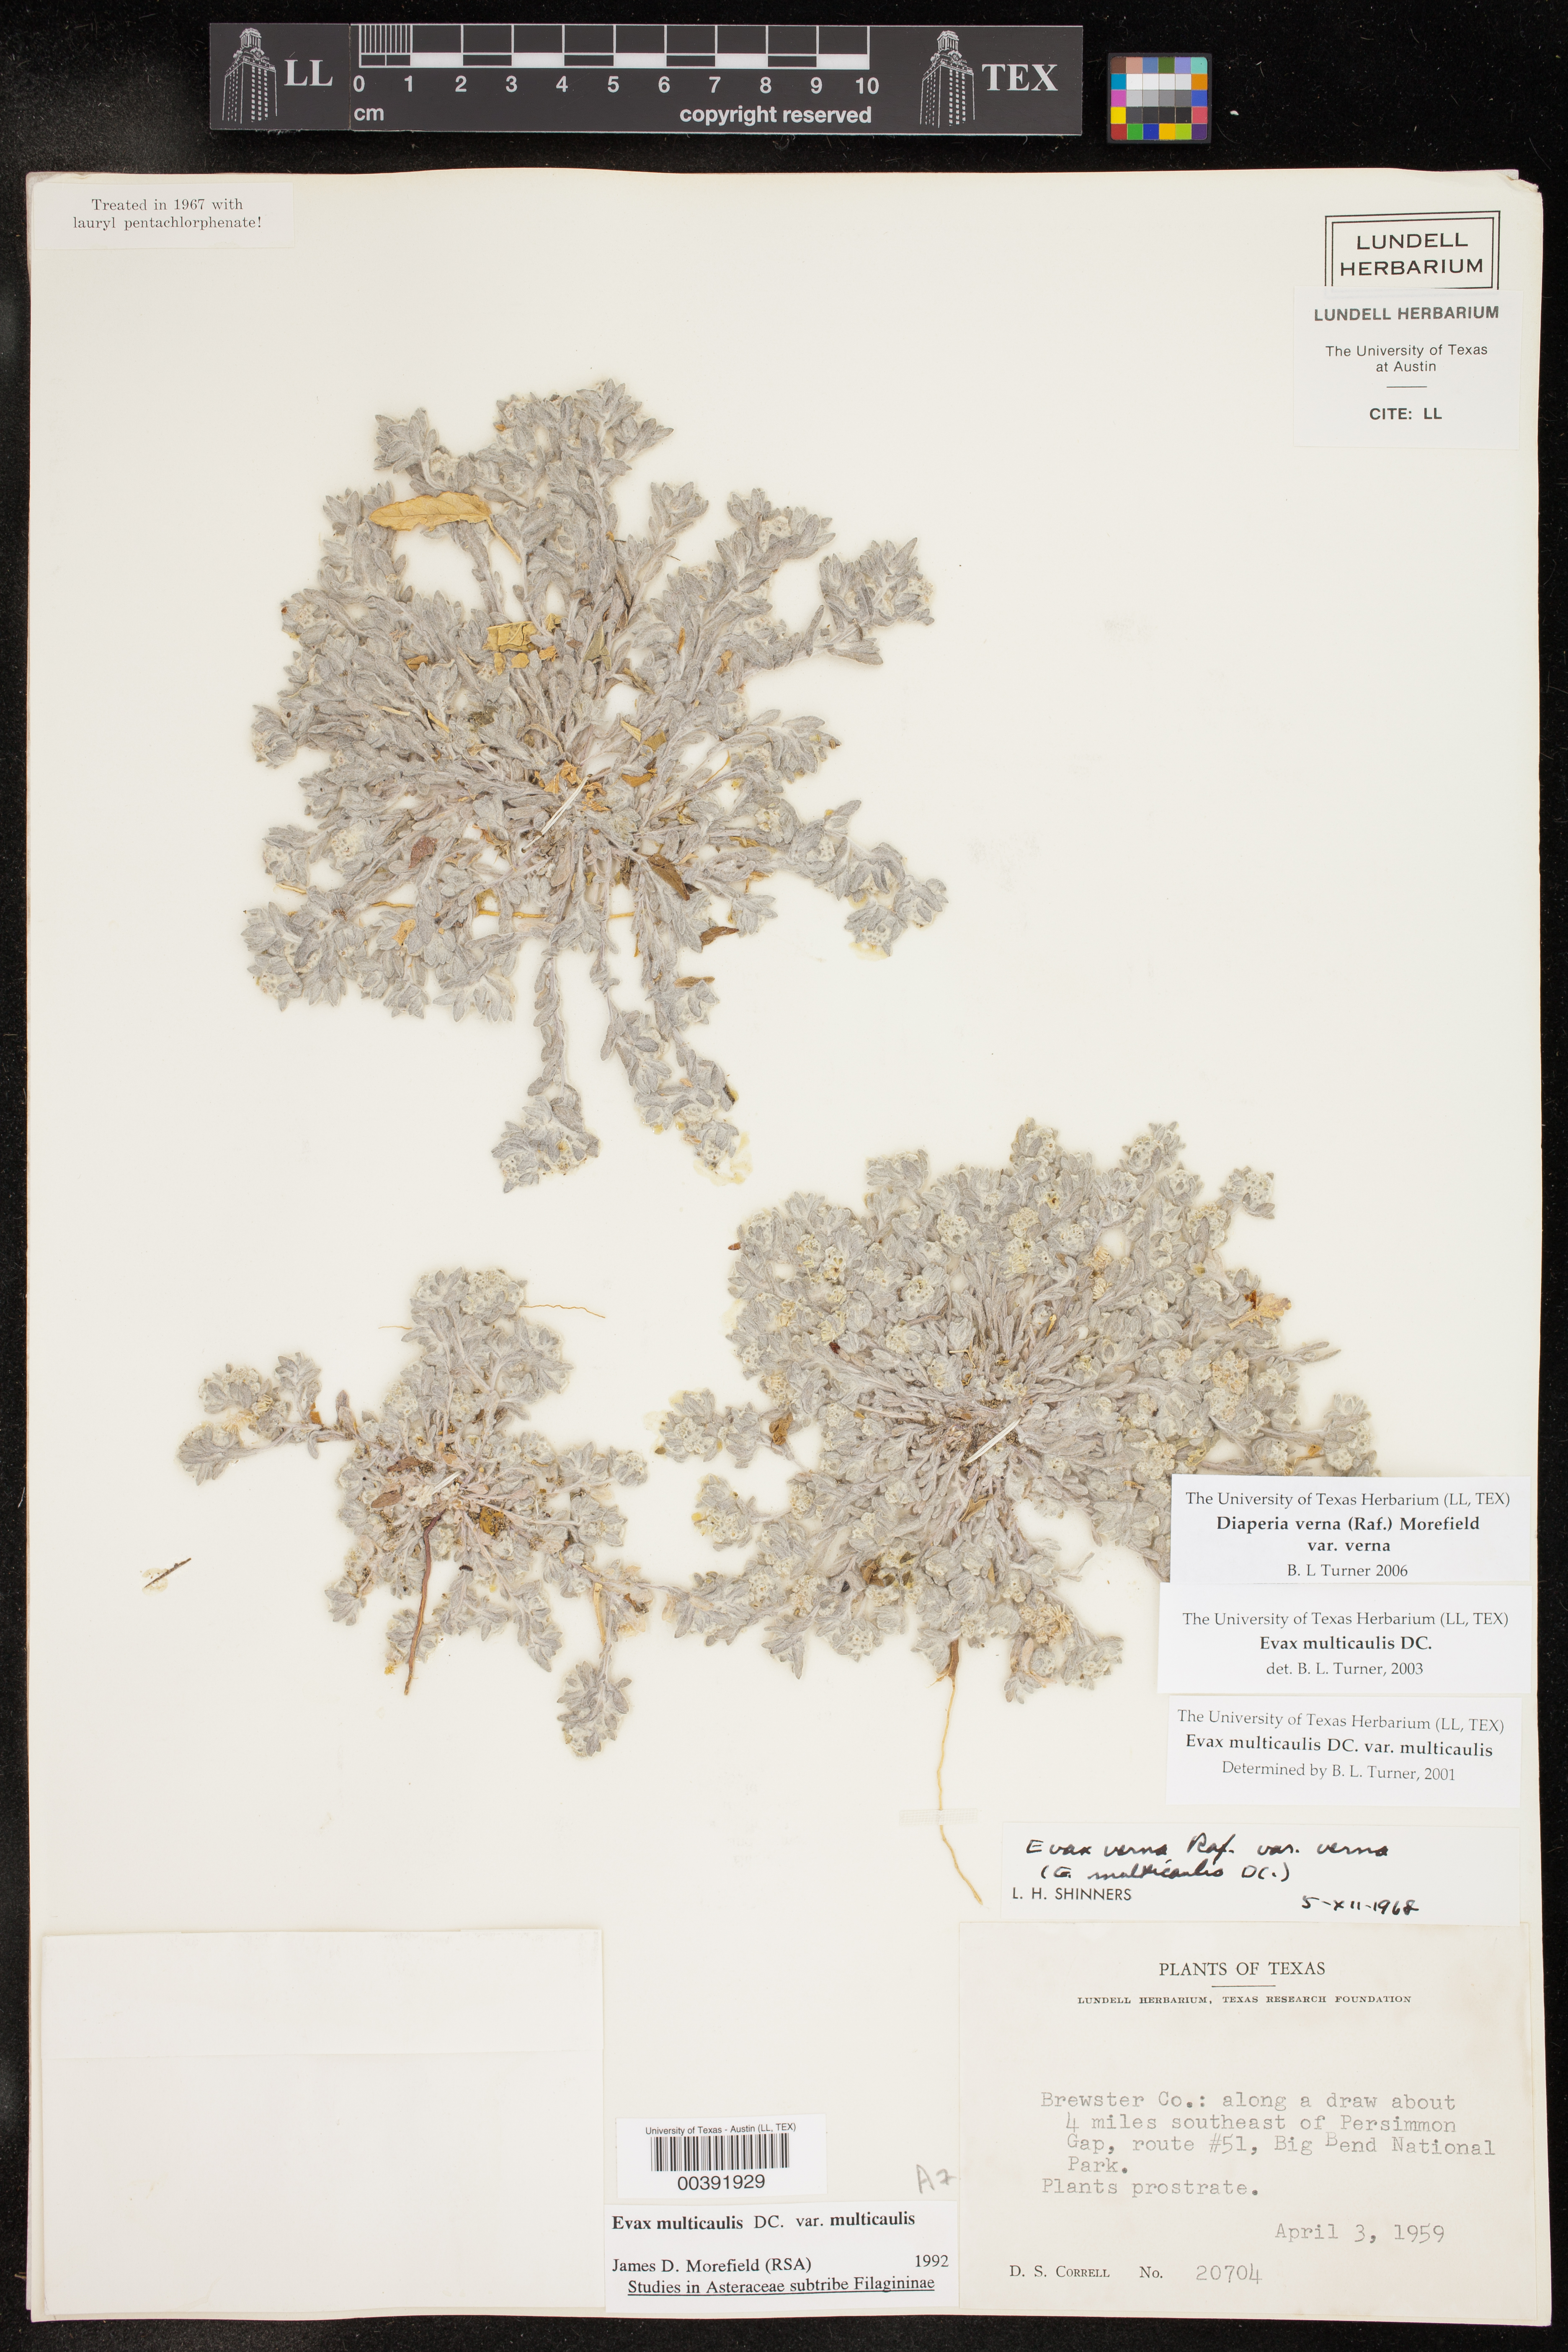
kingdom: Plantae
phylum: Tracheophyta
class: Magnoliopsida
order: Asterales
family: Asteraceae
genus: Diaperia
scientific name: Diaperia verna
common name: Many-stem rabbit-tobacco
